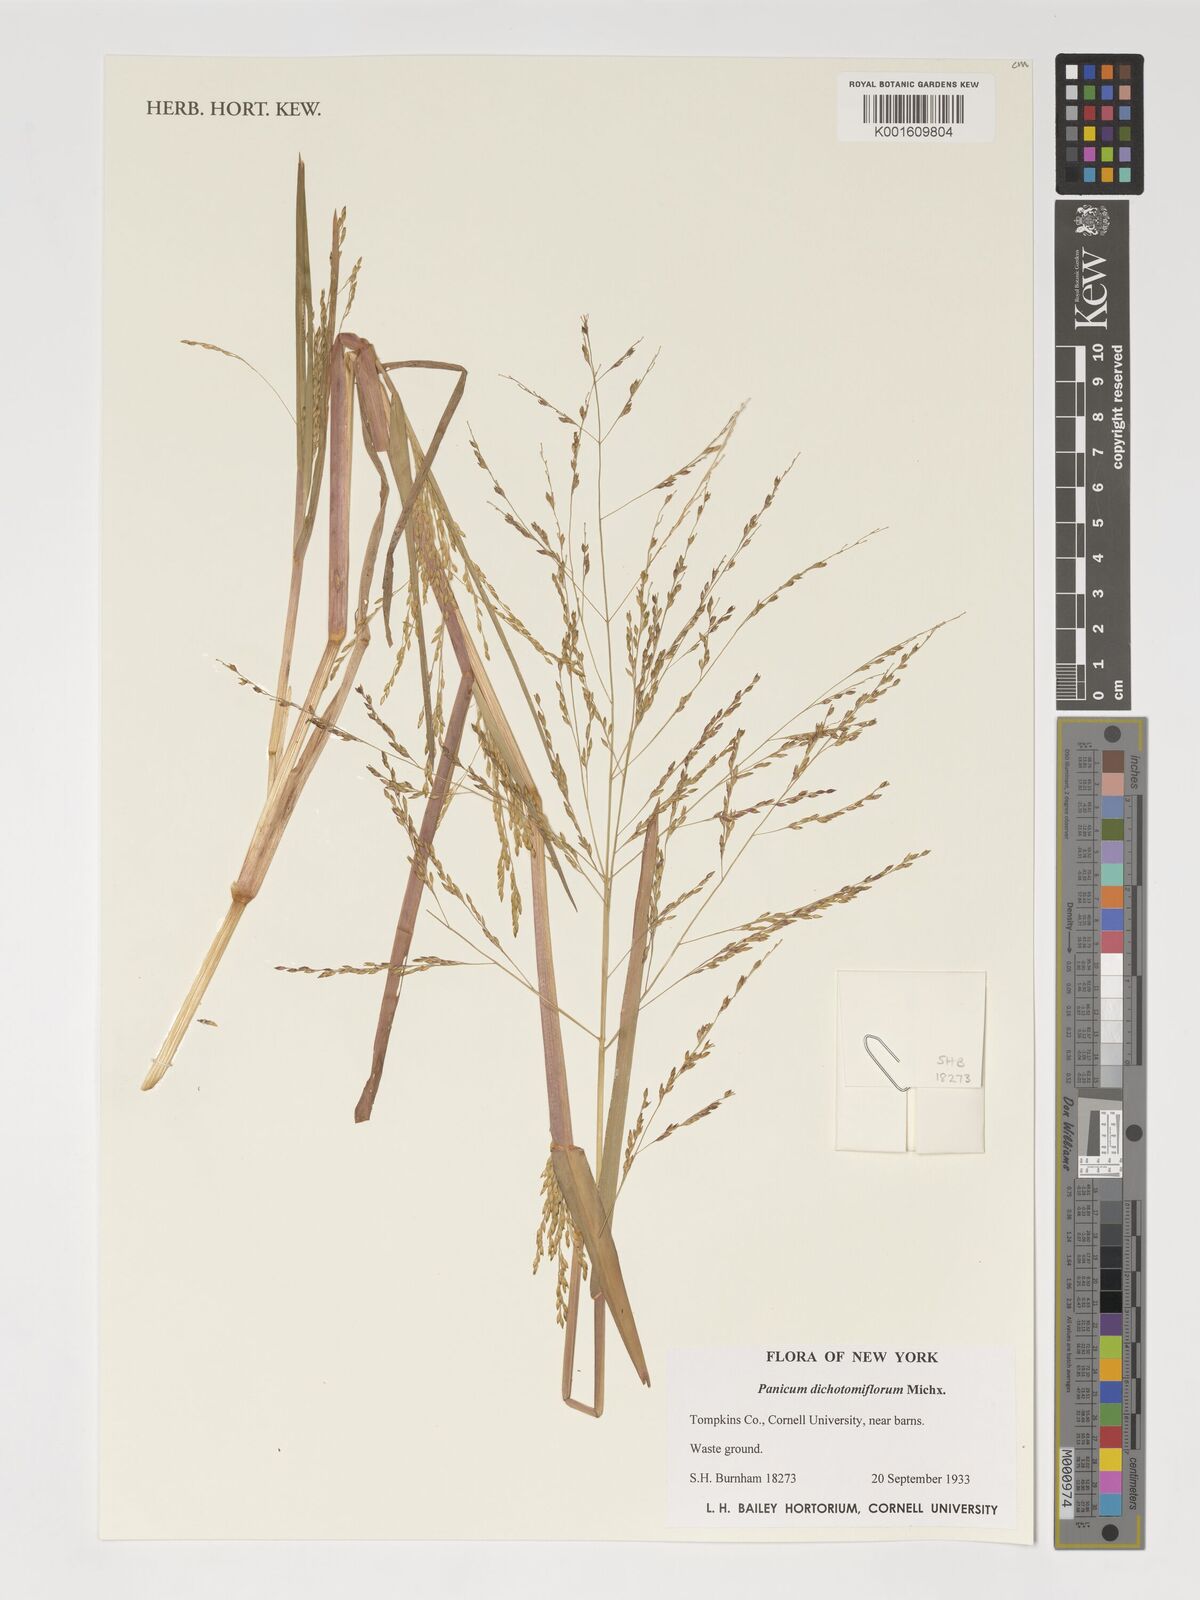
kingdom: Plantae
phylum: Tracheophyta
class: Liliopsida
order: Poales
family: Poaceae
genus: Panicum
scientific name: Panicum dichotomiflorum
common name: Autumn millet
